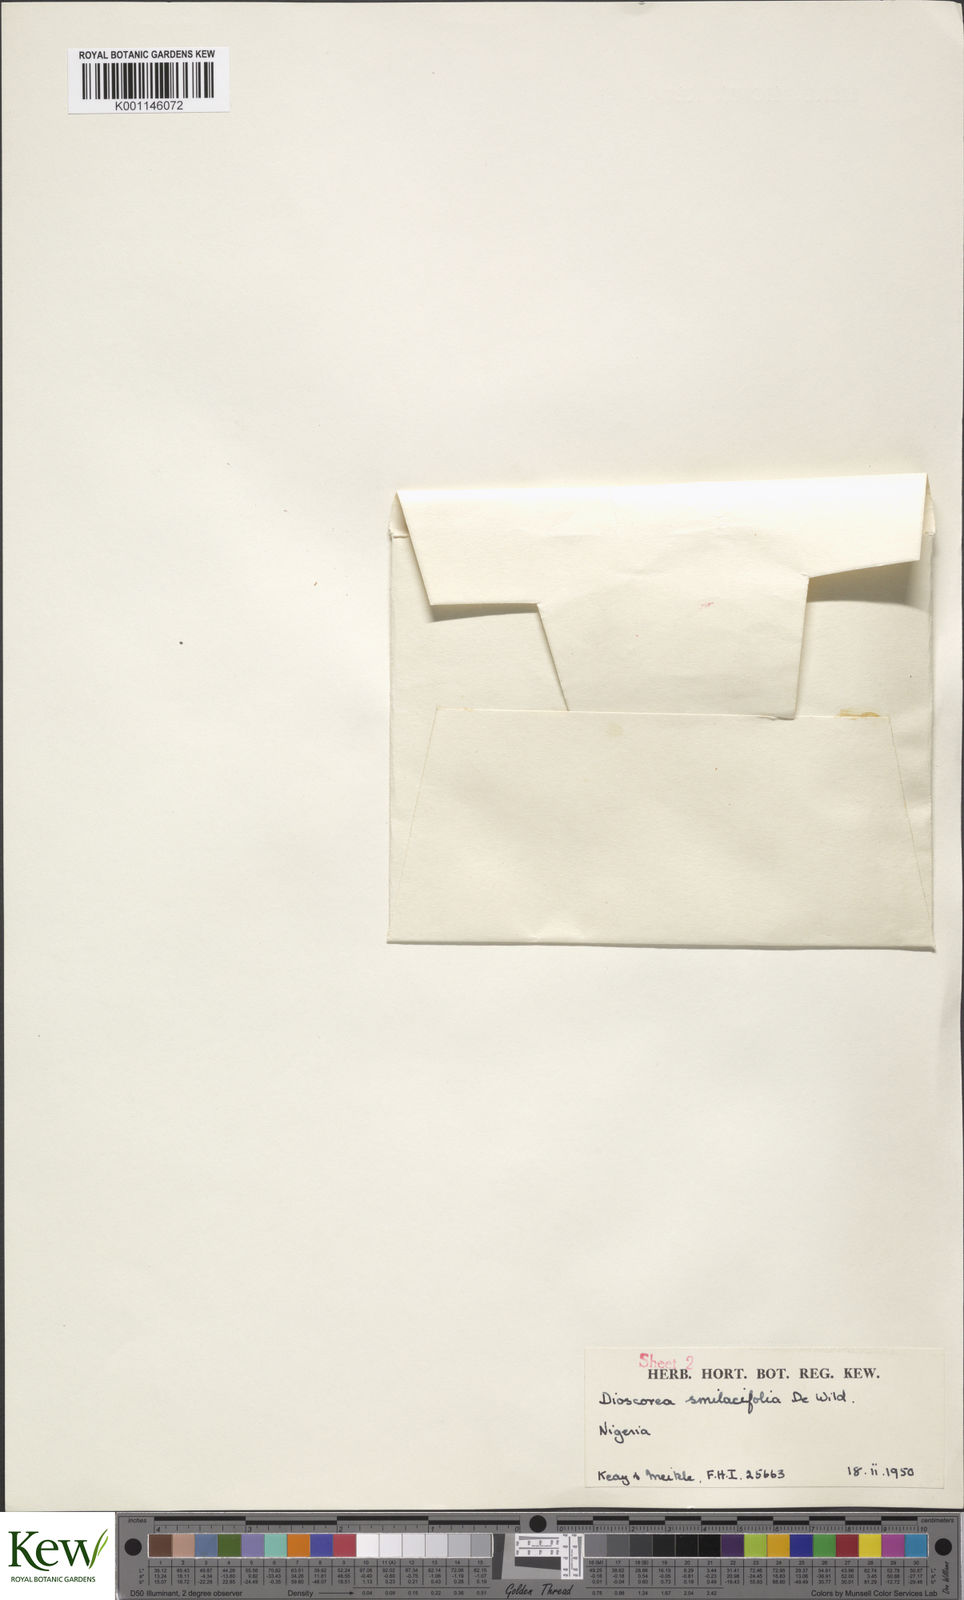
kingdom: Plantae
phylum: Tracheophyta
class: Liliopsida
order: Dioscoreales
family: Dioscoreaceae
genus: Dioscorea
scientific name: Dioscorea smilacifolia
